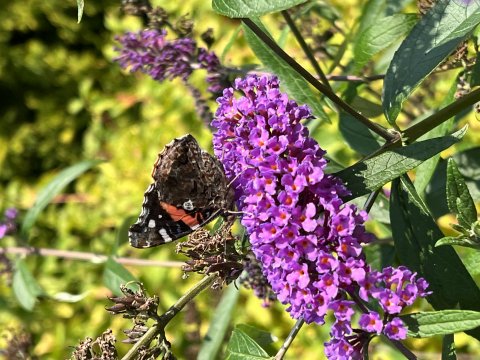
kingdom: Animalia
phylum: Arthropoda
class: Insecta
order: Lepidoptera
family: Nymphalidae
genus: Vanessa
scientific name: Vanessa atalanta
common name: Red Admiral
